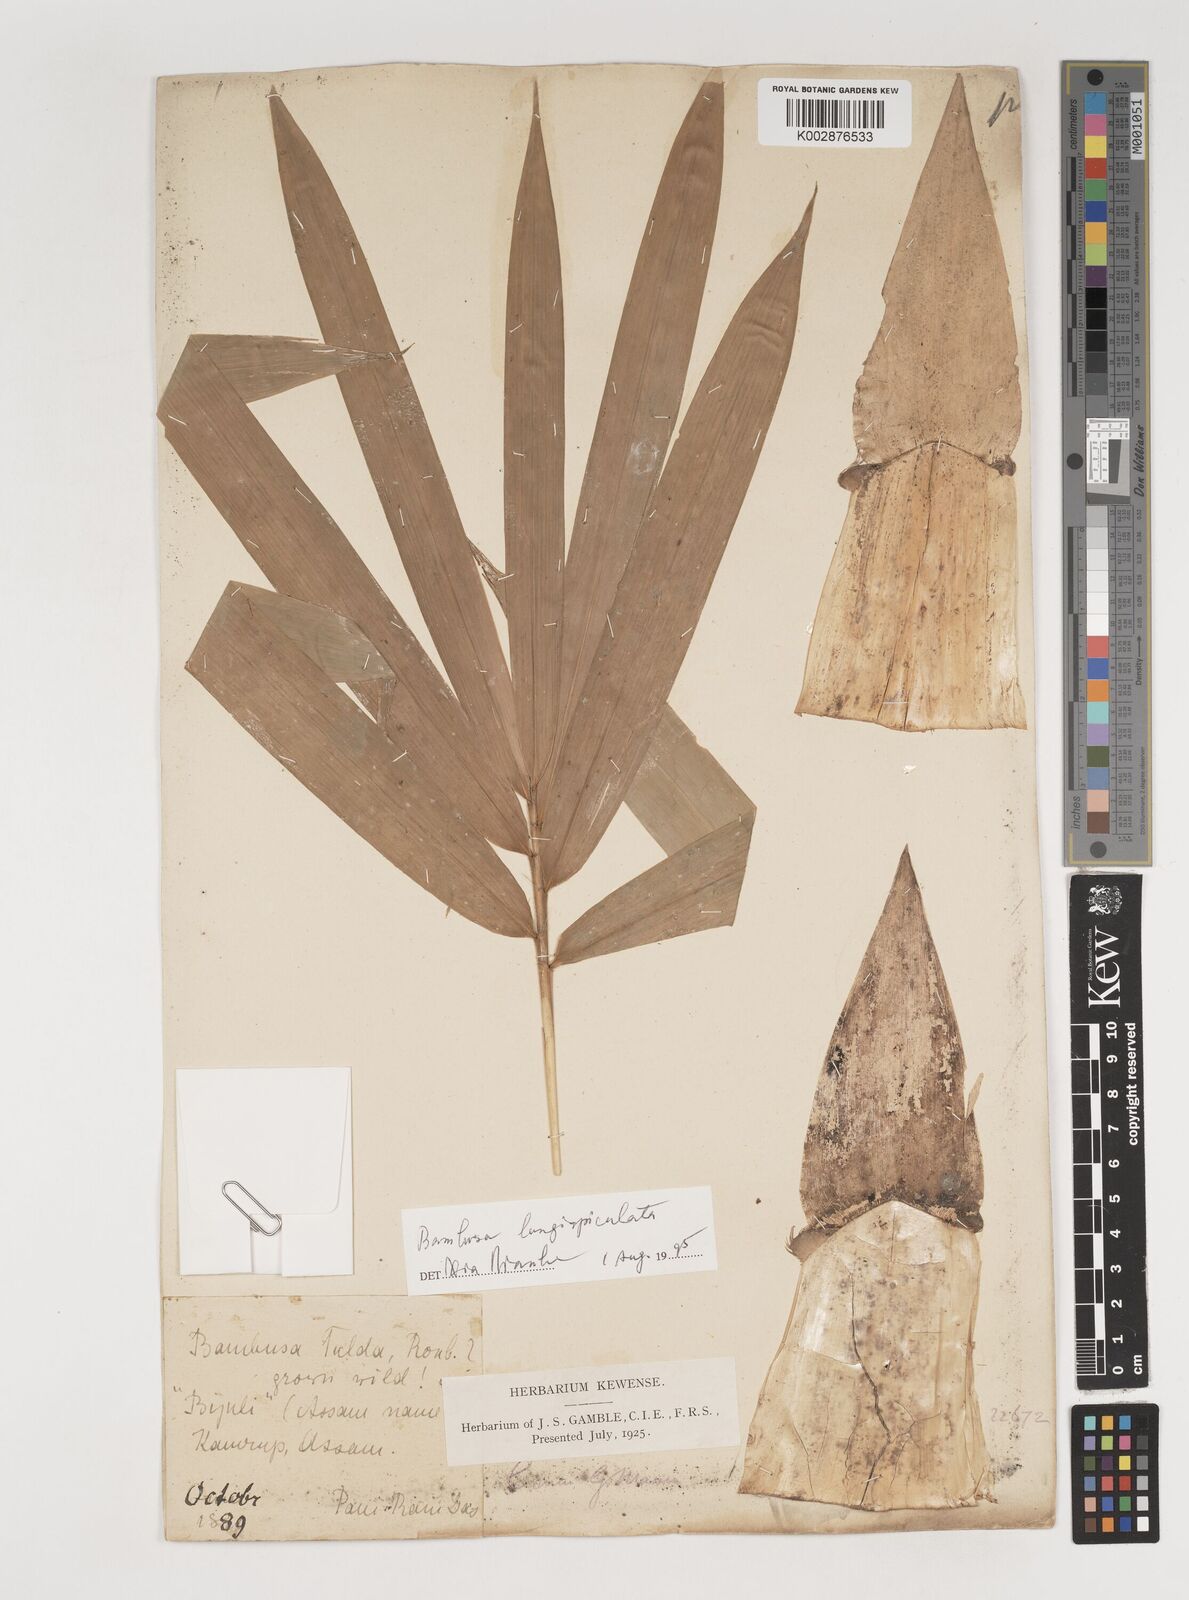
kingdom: Plantae
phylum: Tracheophyta
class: Liliopsida
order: Poales
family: Poaceae
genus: Bambusa
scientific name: Bambusa longispiculata
